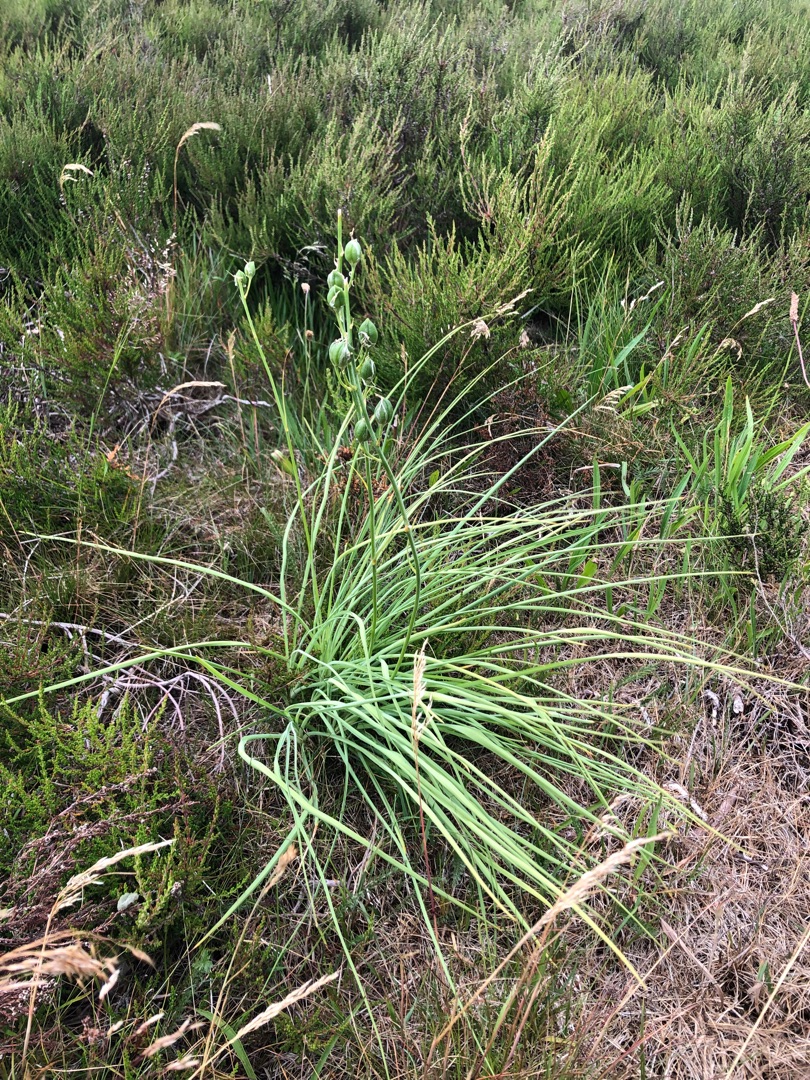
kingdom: Plantae
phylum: Tracheophyta
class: Liliopsida
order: Asparagales
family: Asparagaceae
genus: Anthericum
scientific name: Anthericum liliago
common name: Ugrenet edderkopurt
